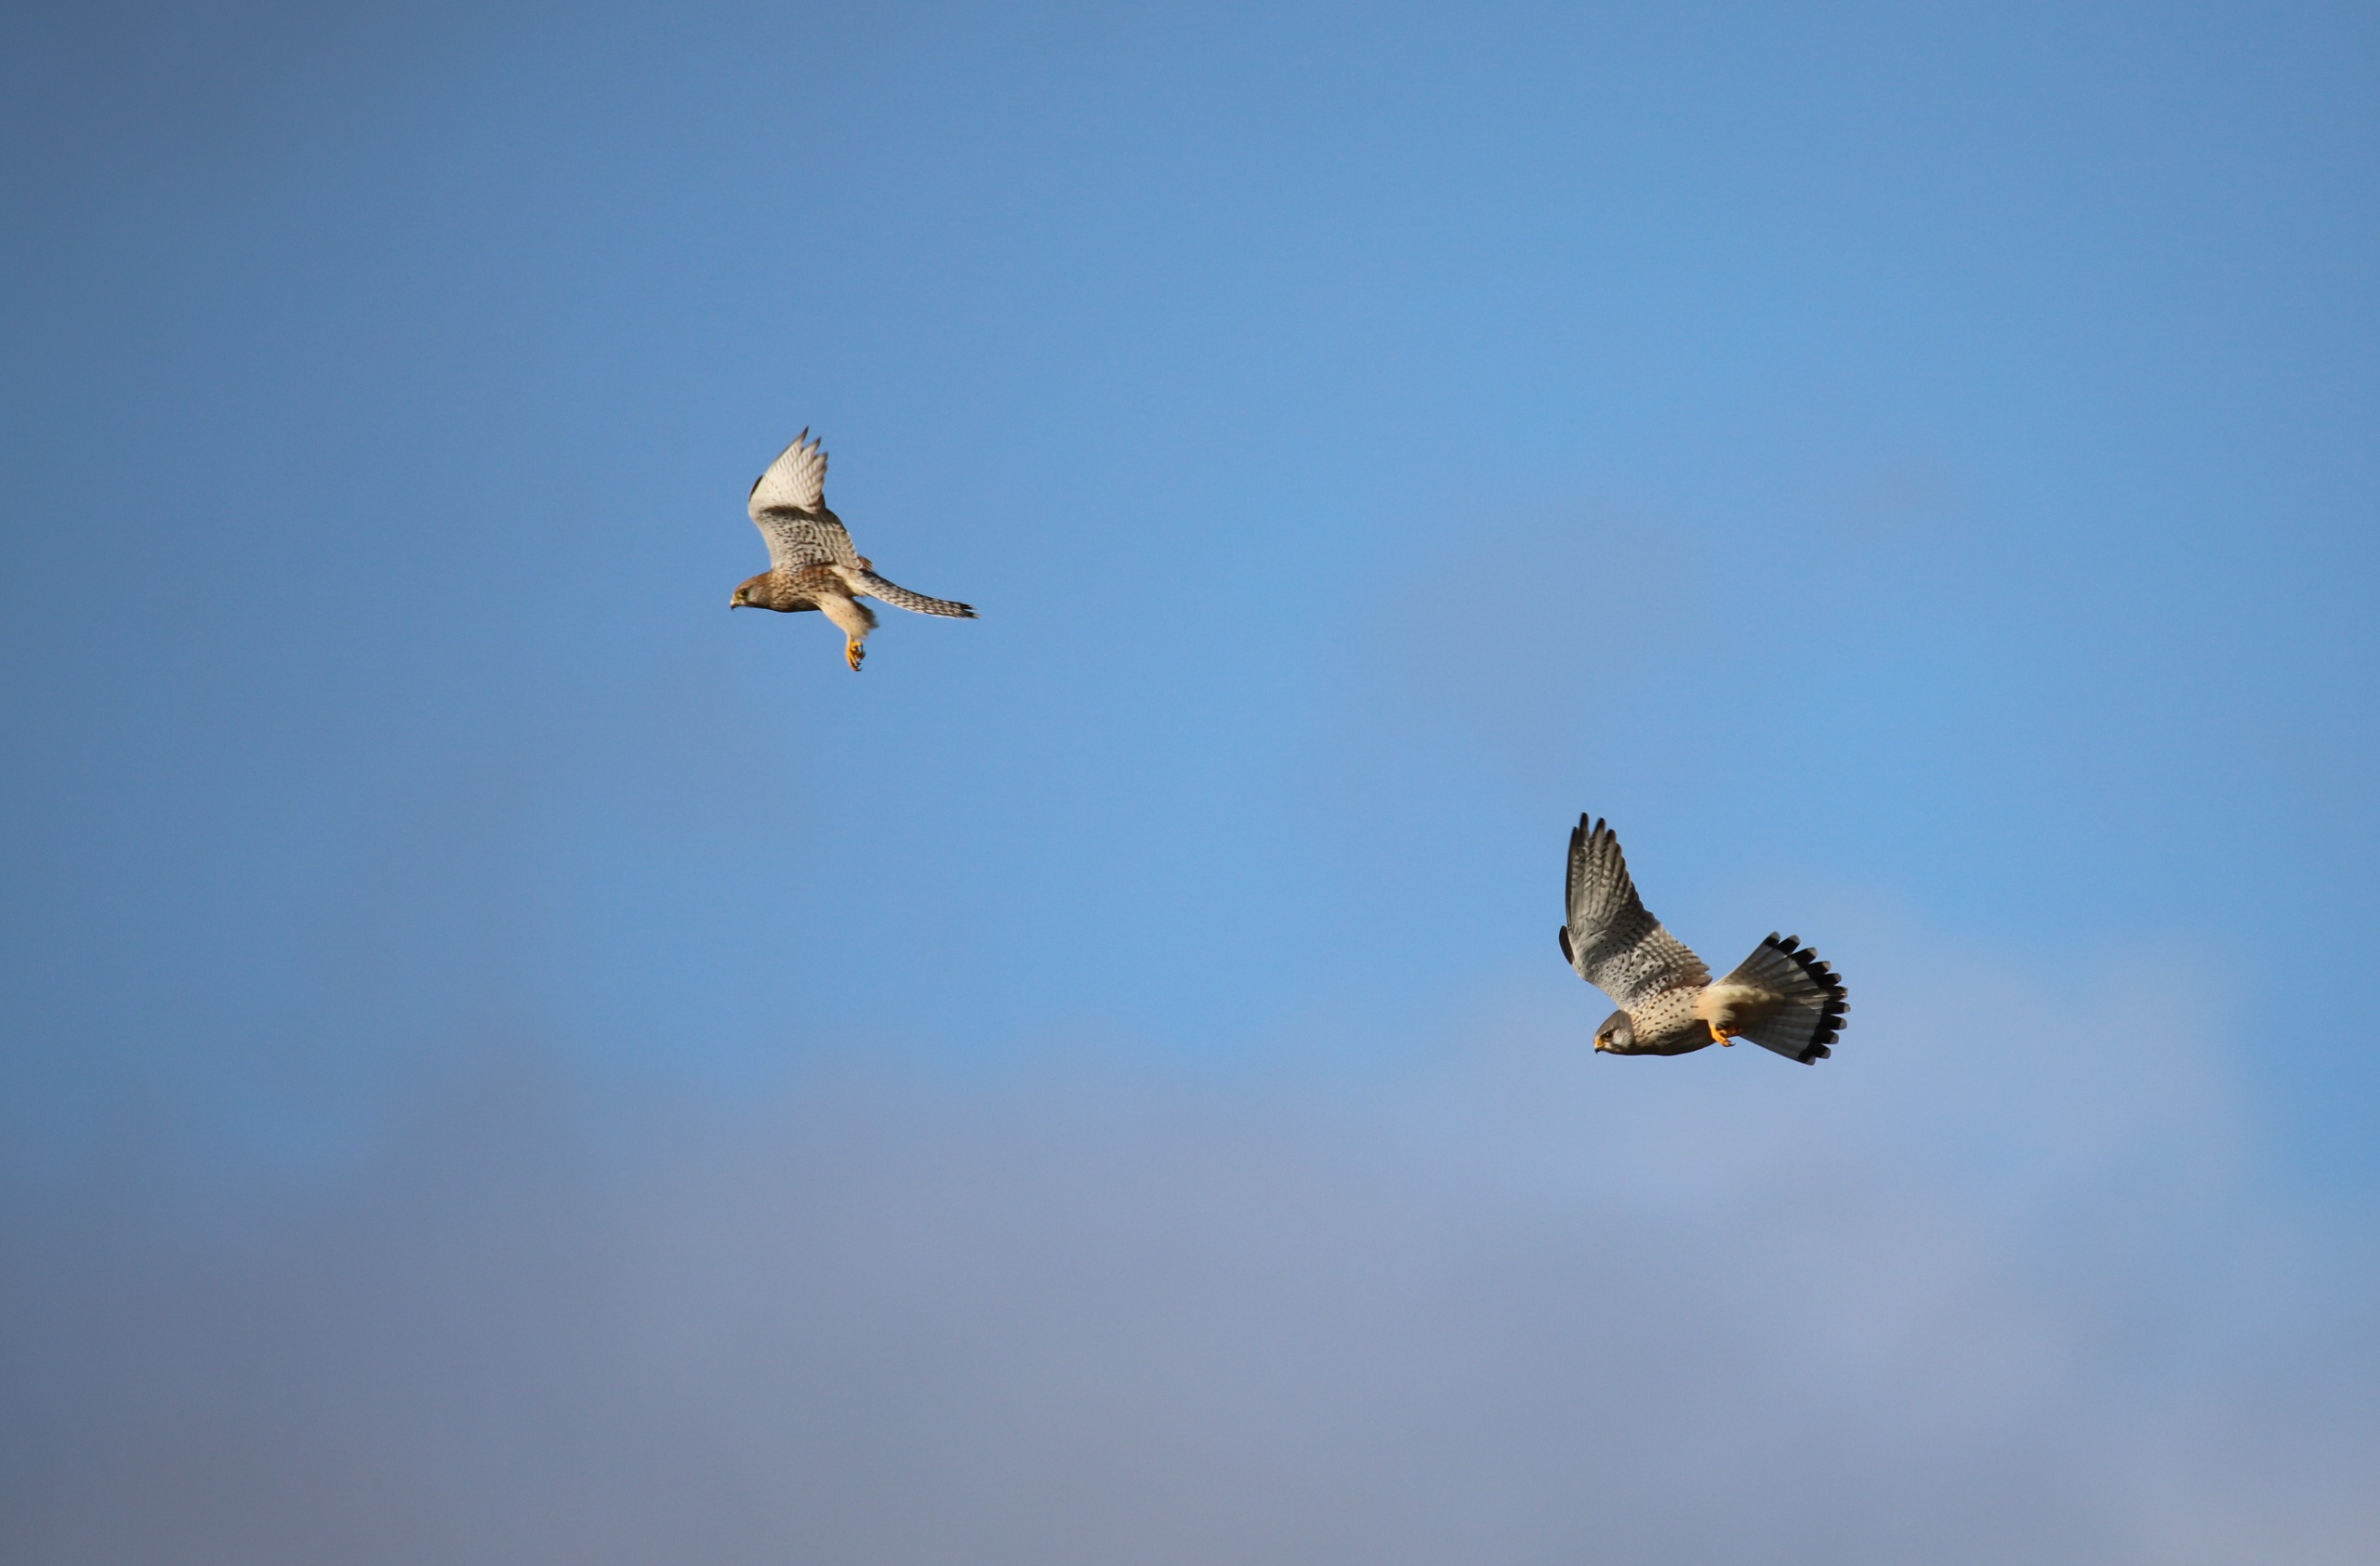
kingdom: Animalia
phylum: Chordata
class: Aves
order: Falconiformes
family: Falconidae
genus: Falco
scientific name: Falco tinnunculus
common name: Tårnfalk
